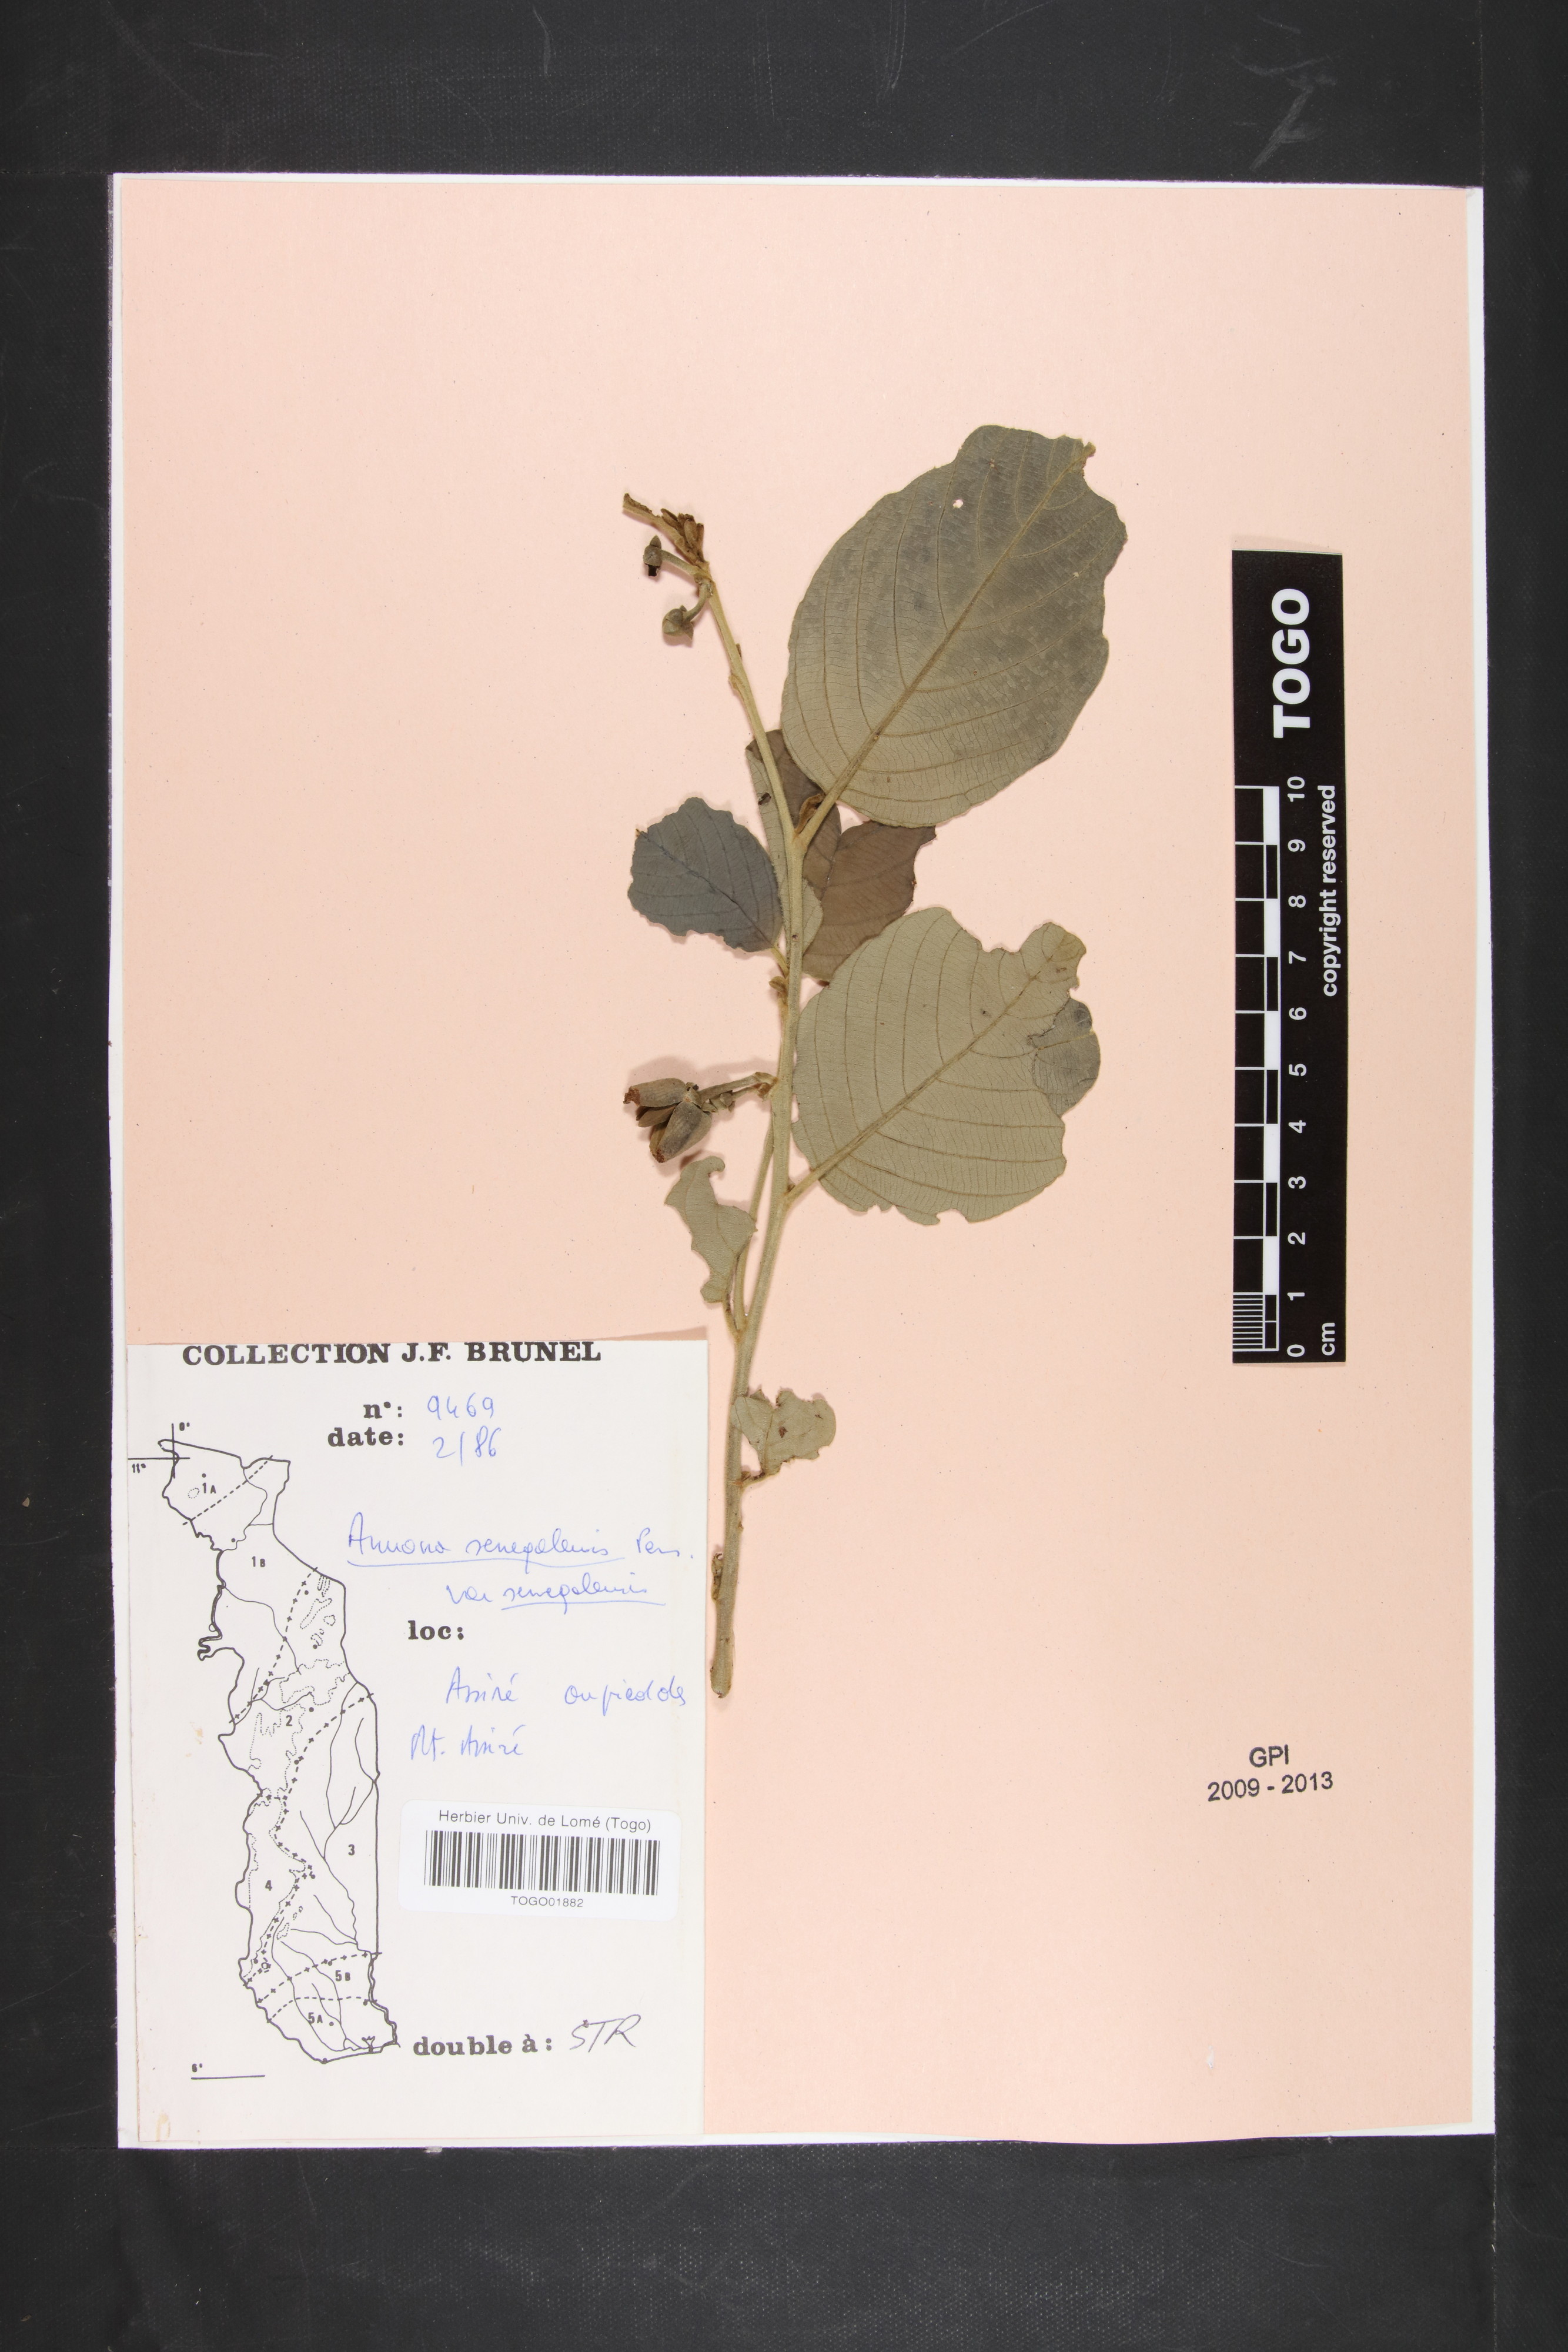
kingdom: Plantae
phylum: Tracheophyta
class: Magnoliopsida
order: Magnoliales
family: Annonaceae
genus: Annona
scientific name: Annona senegalensis
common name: Wild custard-apple
